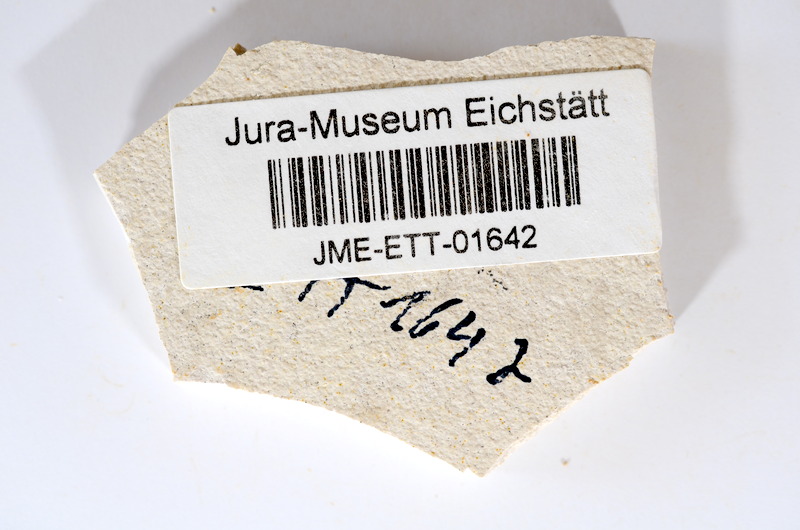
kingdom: Animalia
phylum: Chordata
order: Salmoniformes
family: Orthogonikleithridae
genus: Orthogonikleithrus
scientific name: Orthogonikleithrus hoelli
